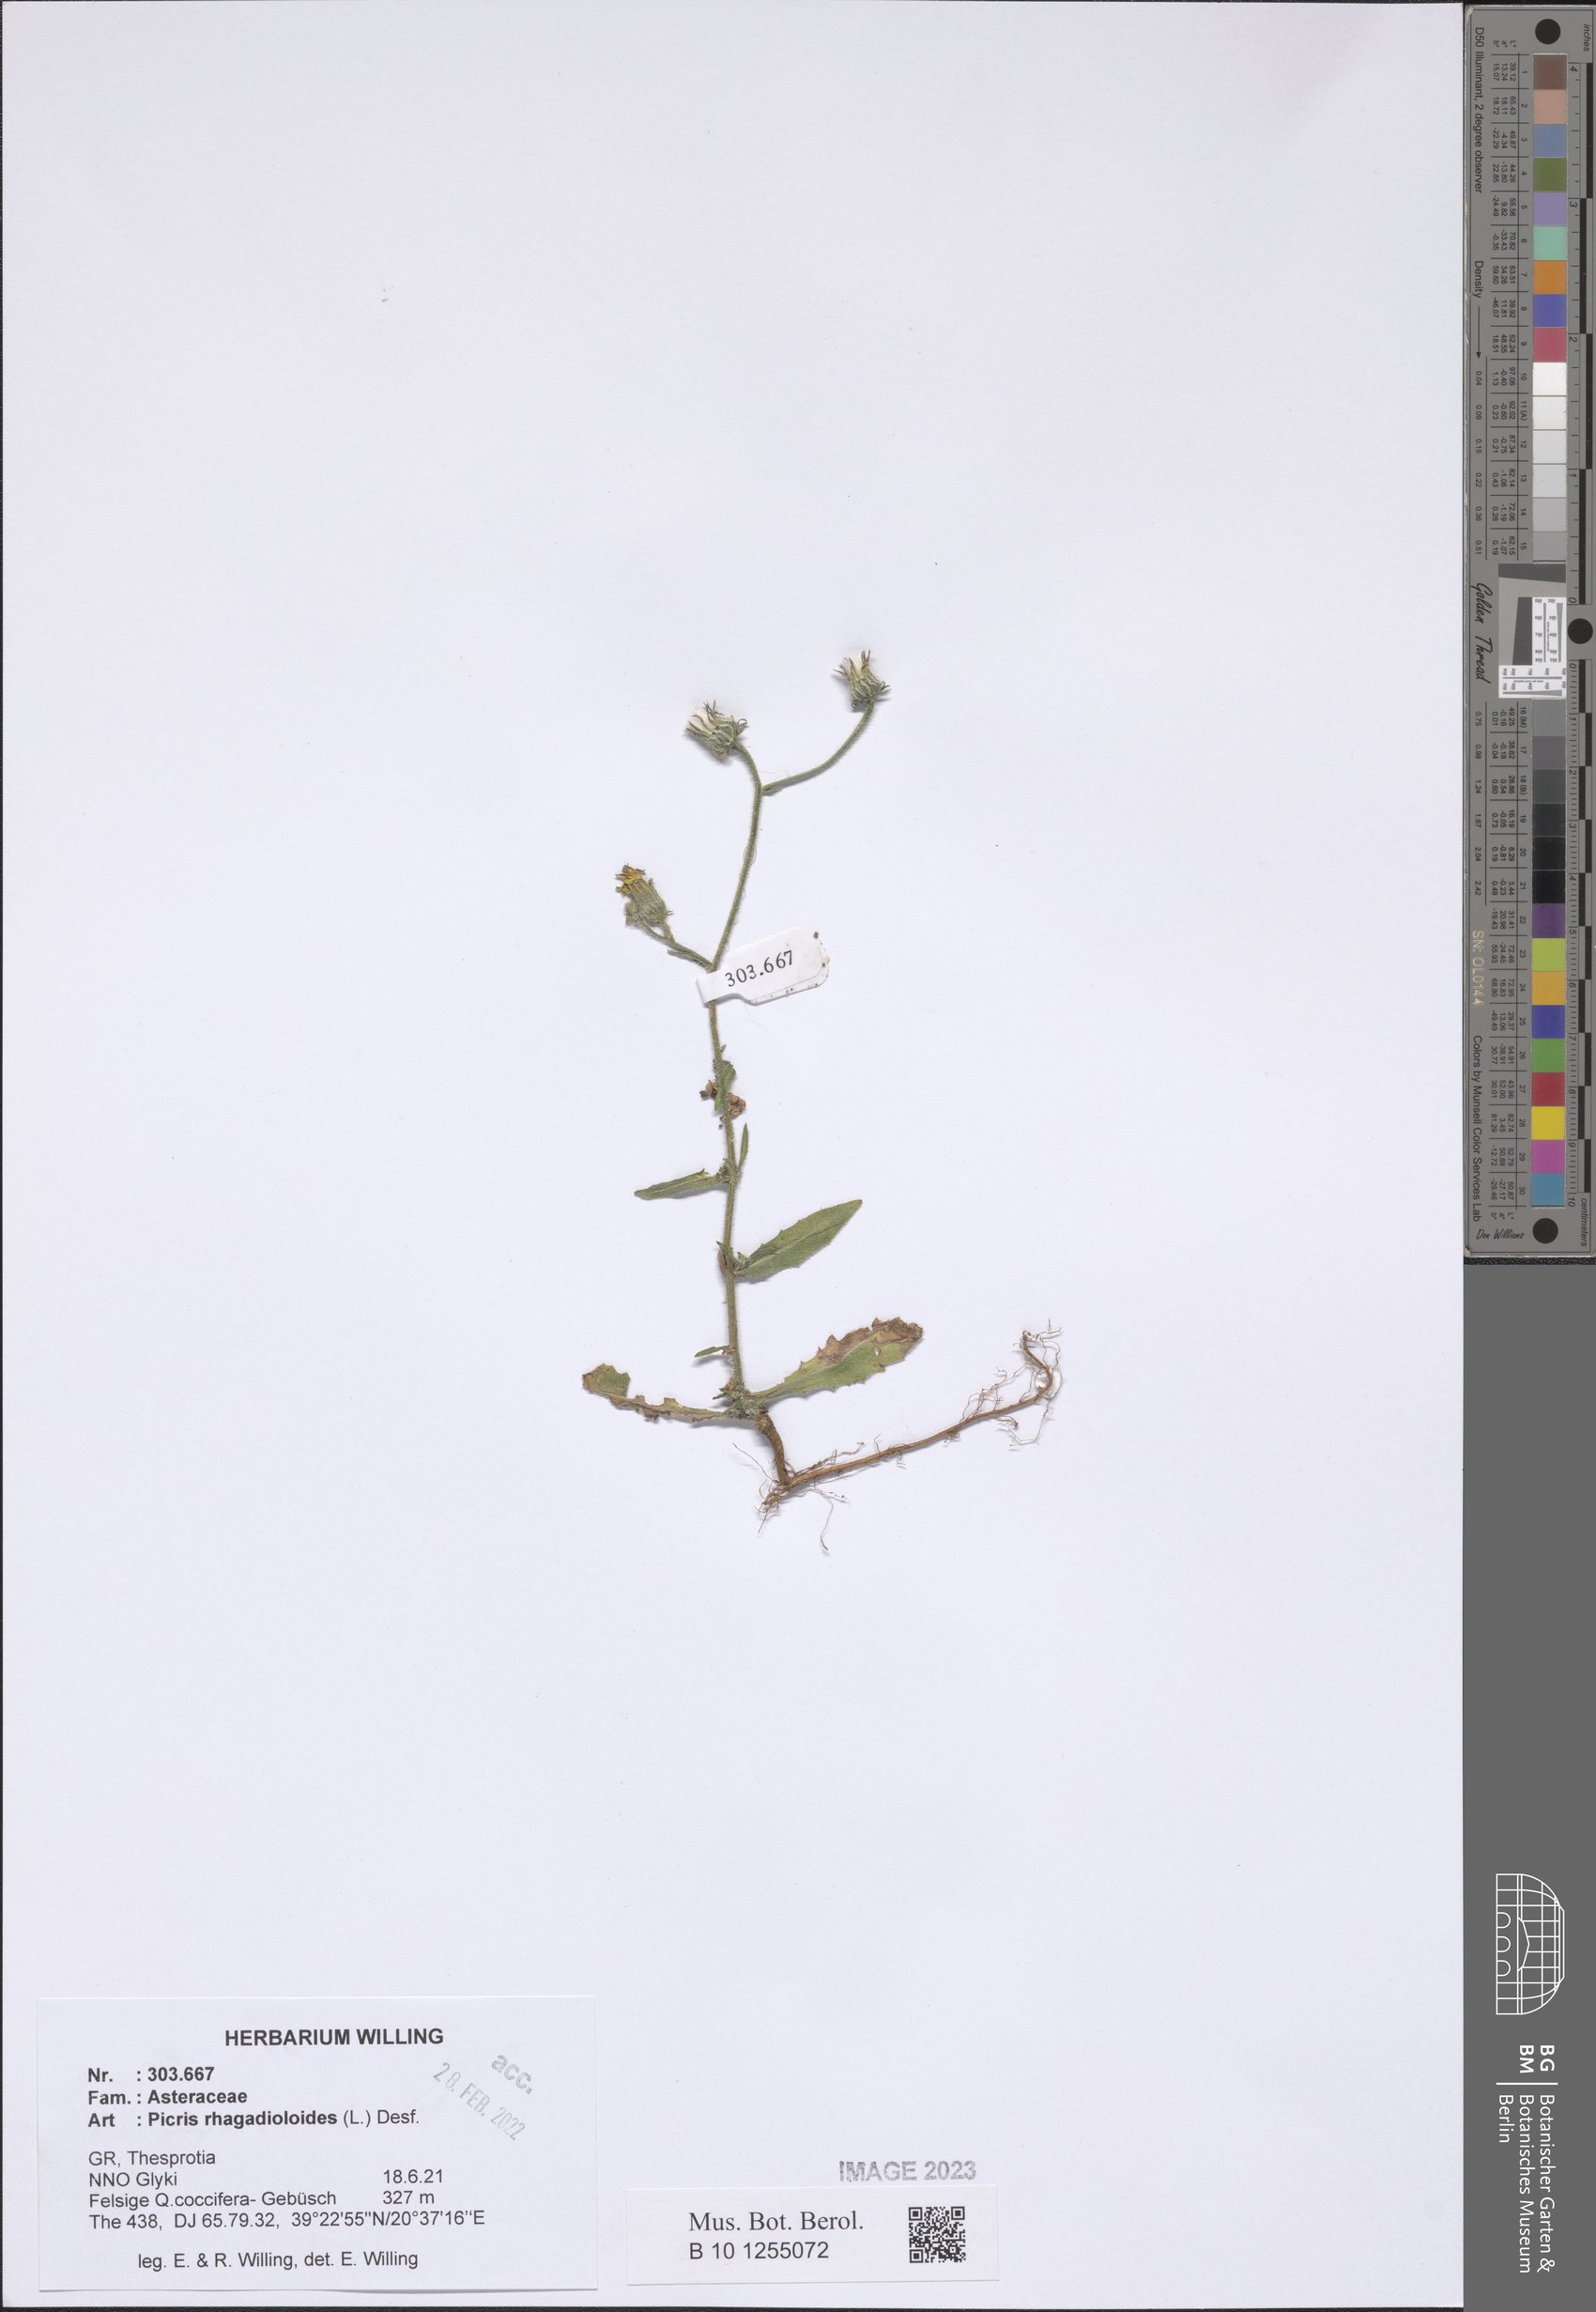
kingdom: Plantae
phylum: Tracheophyta
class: Magnoliopsida
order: Asterales
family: Asteraceae
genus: Picris
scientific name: Picris rhagadioloides
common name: Oxtongue
